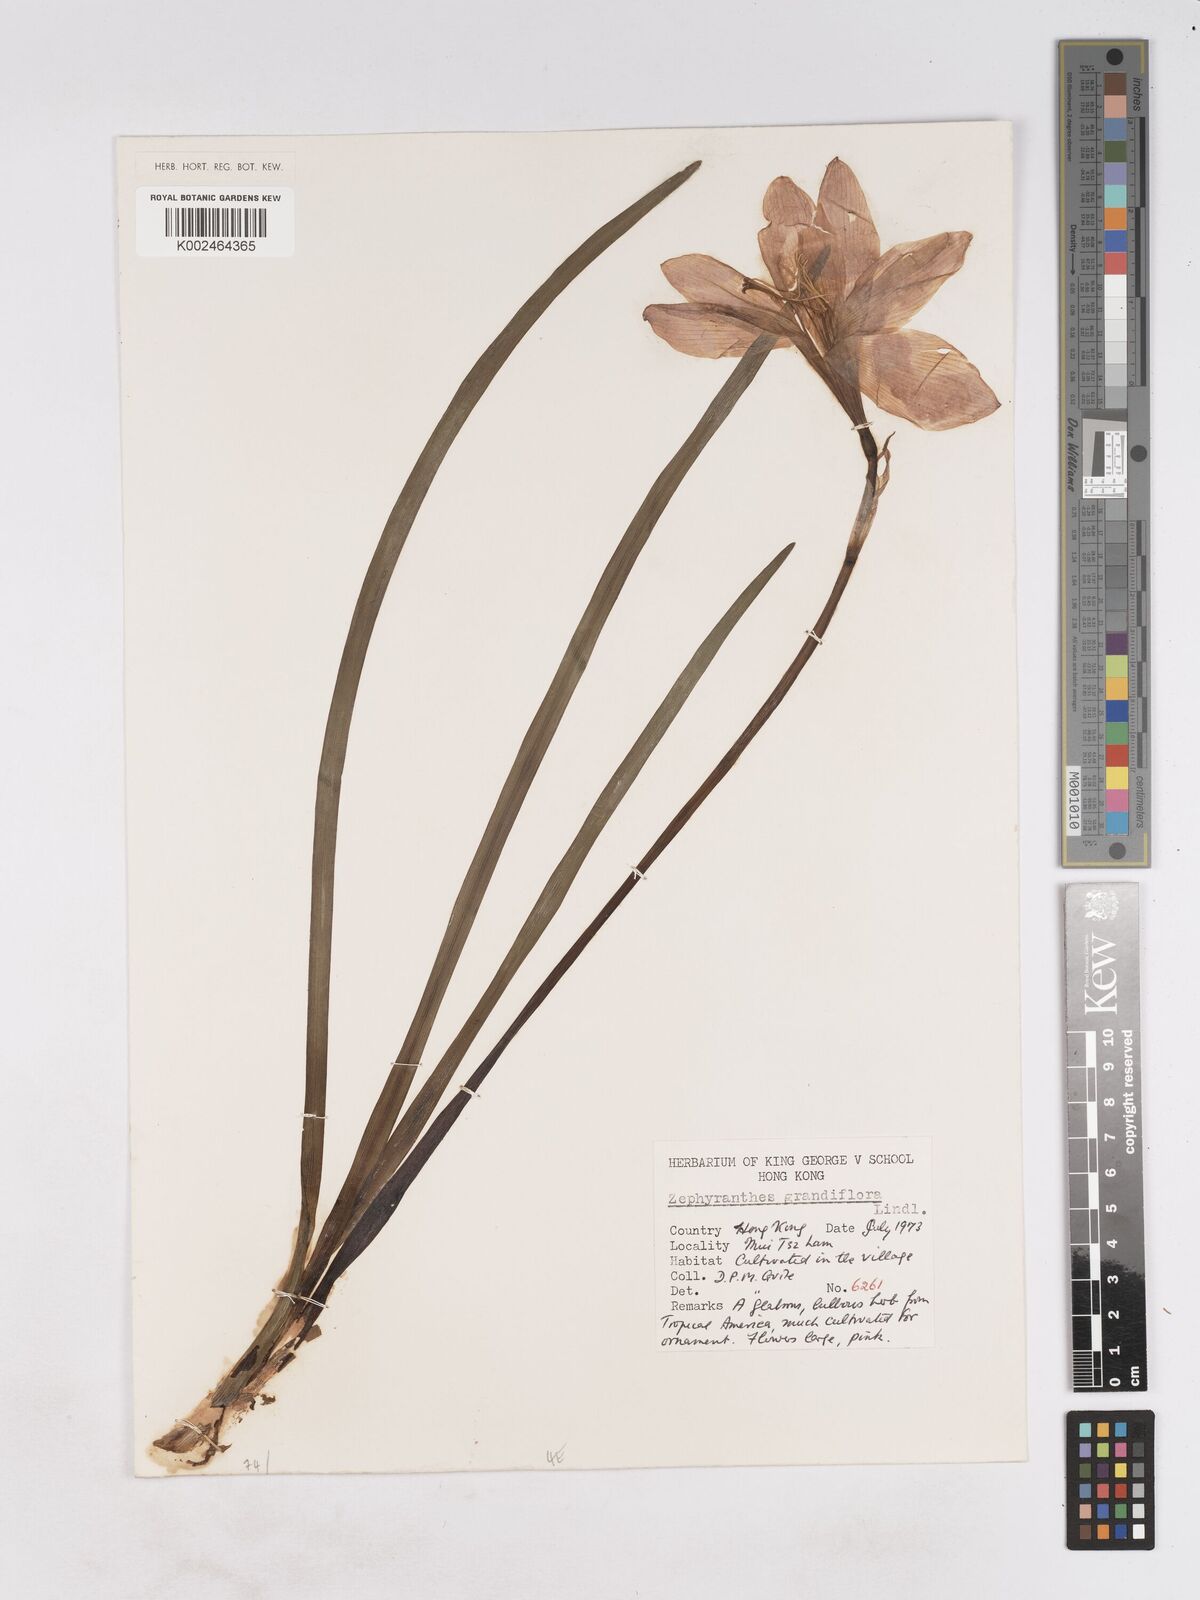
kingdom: Plantae
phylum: Tracheophyta
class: Liliopsida
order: Asparagales
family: Amaryllidaceae
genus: Zephyranthes
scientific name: Zephyranthes minuta
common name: Pink rain lily
